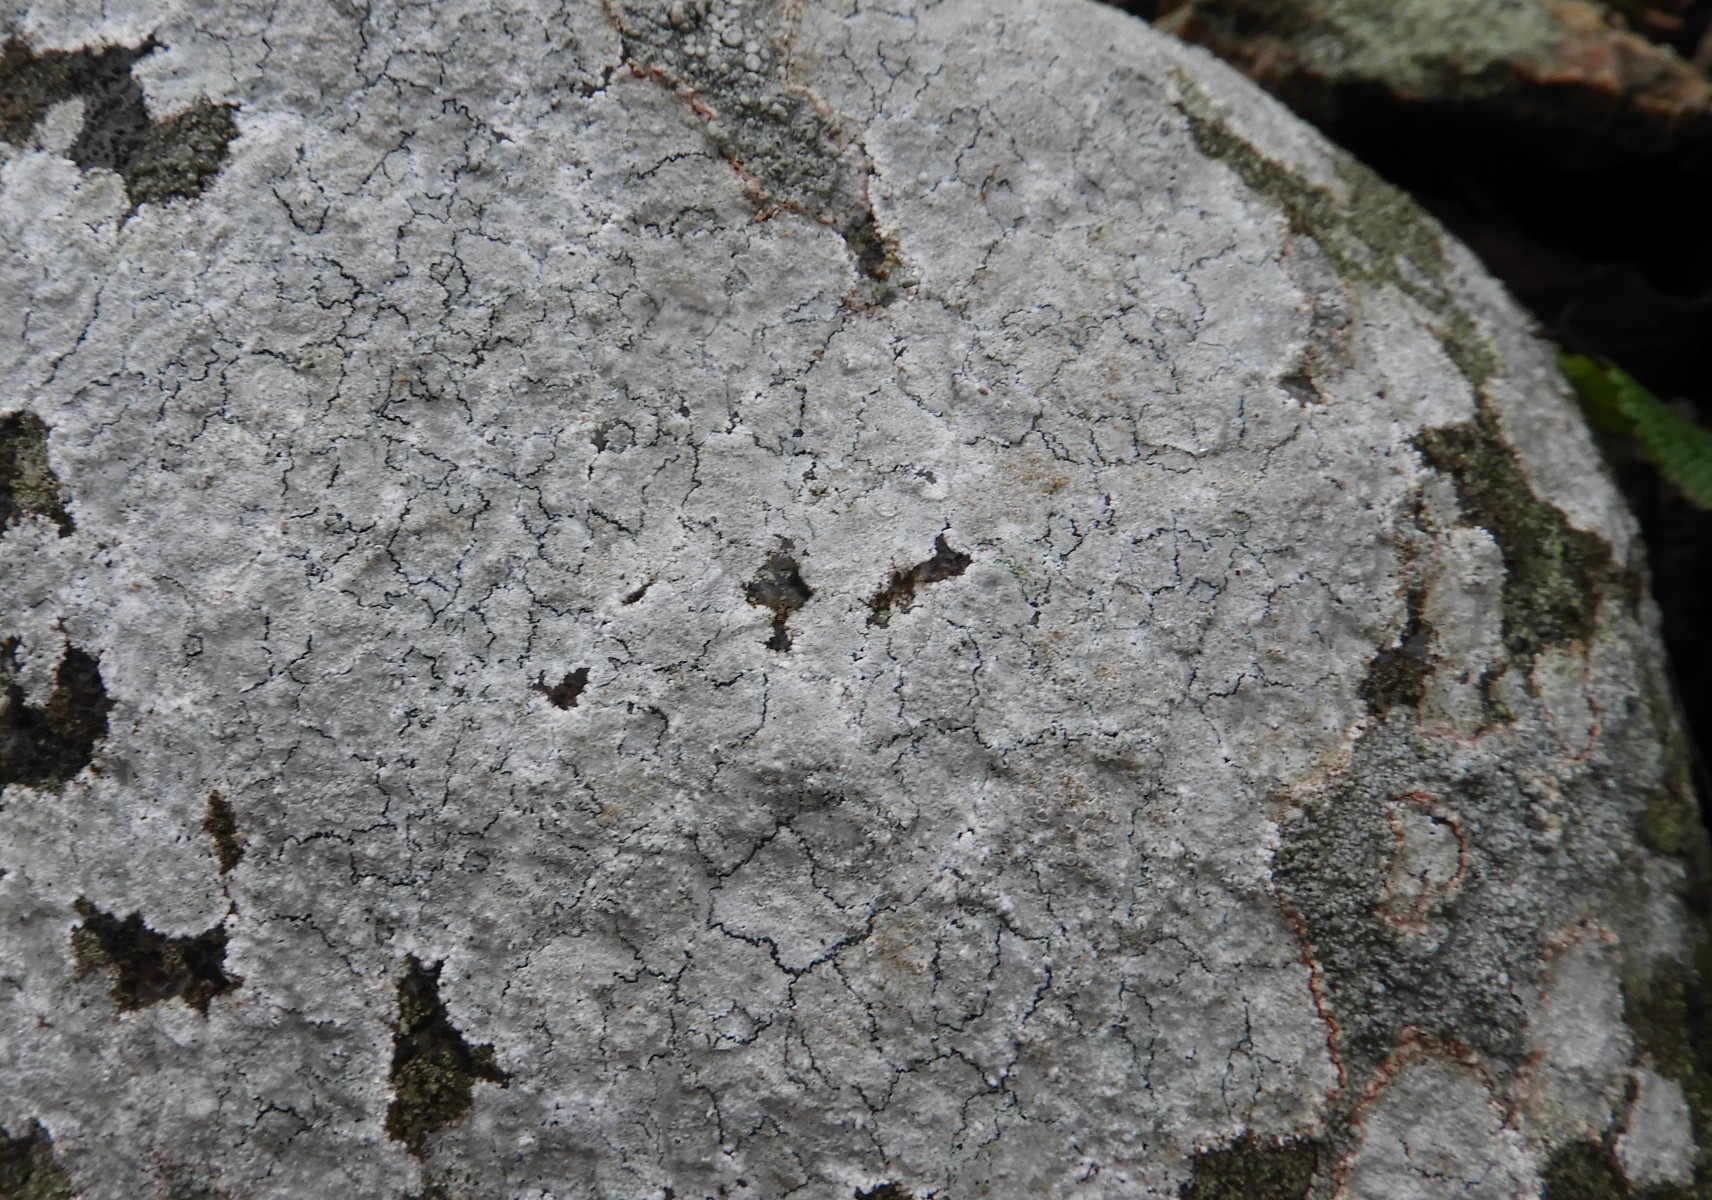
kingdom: Fungi
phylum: Ascomycota
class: Lecanoromycetes
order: Lecanorales
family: Lecanoraceae
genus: Glaucomaria
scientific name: Glaucomaria rupicola
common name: stengærde-kantskivelav
